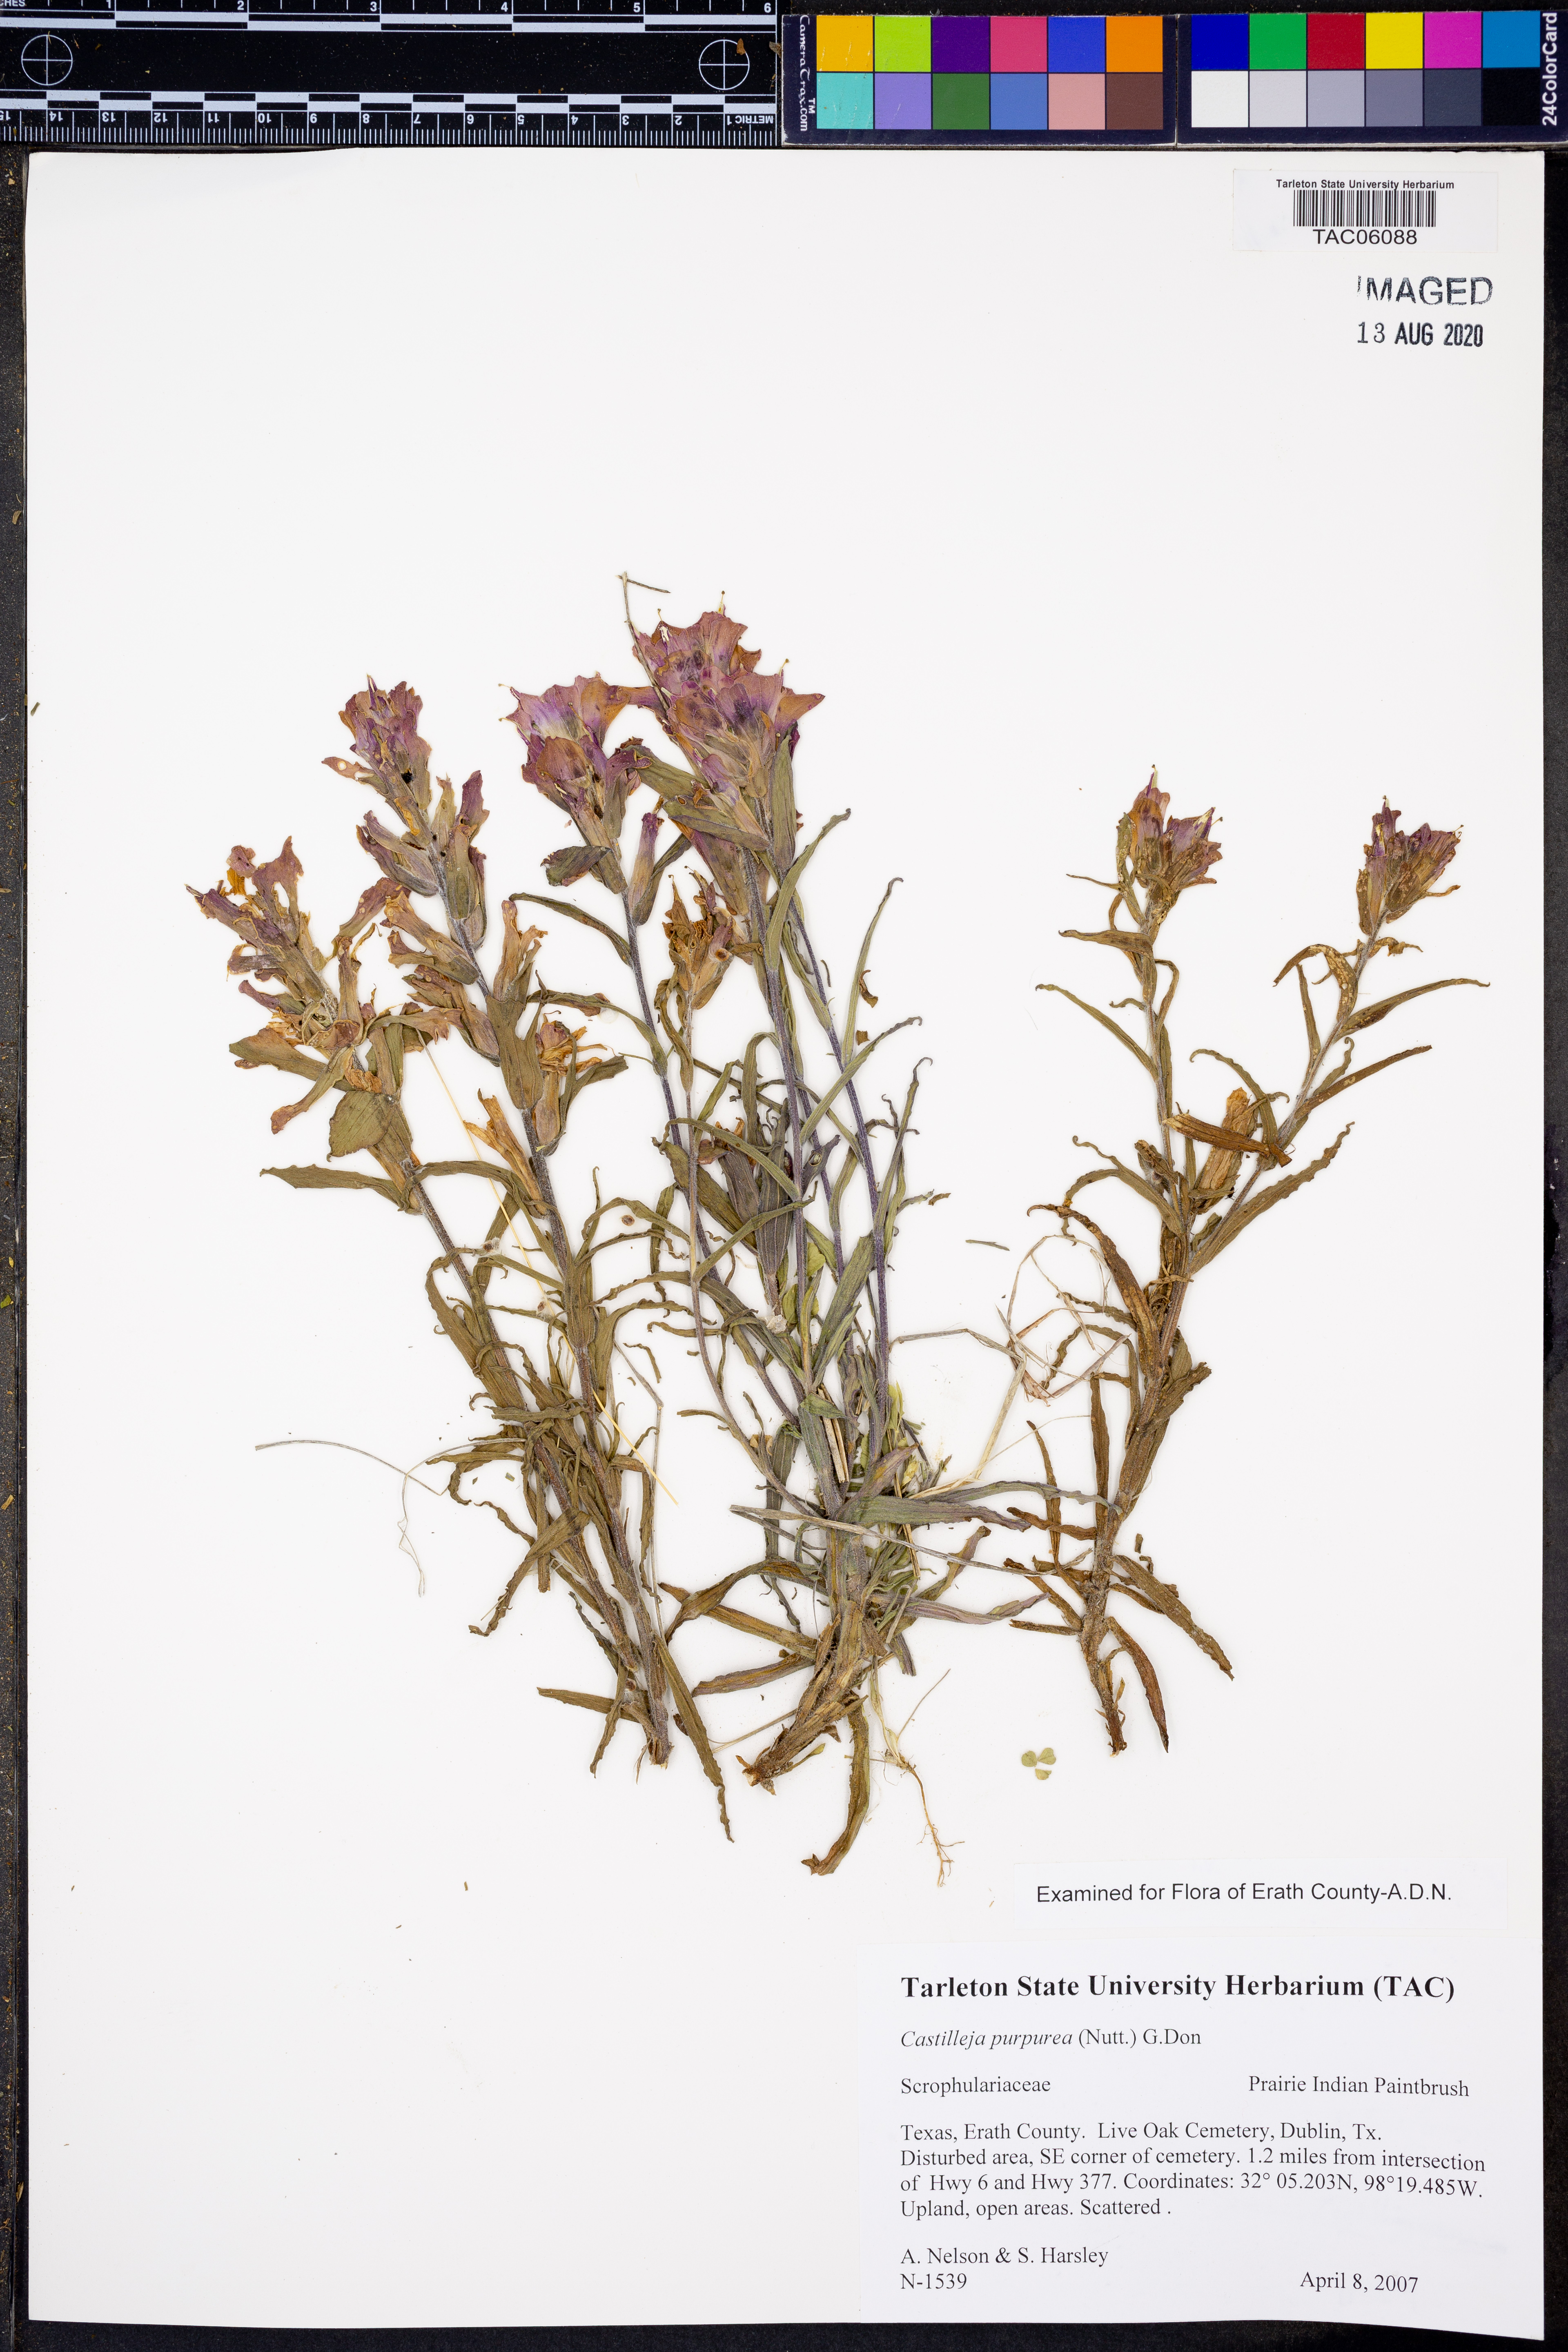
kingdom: Plantae
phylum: Tracheophyta
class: Magnoliopsida
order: Lamiales
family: Orobanchaceae
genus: Castilleja
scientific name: Castilleja purpurea
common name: Plains paintbrush
